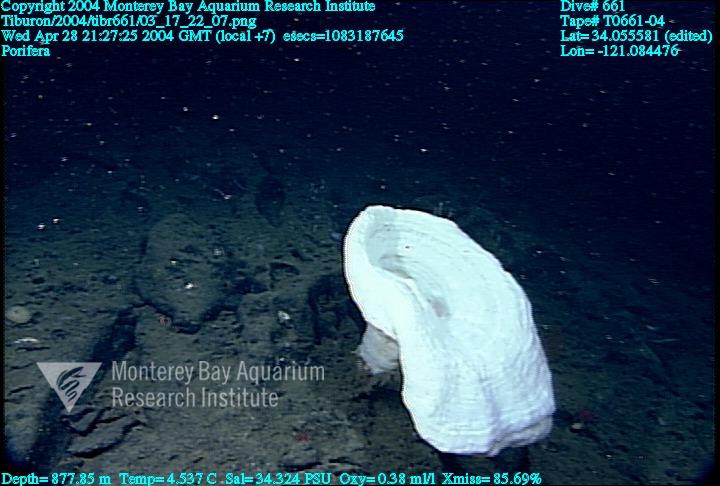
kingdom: Animalia
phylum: Porifera
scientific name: Porifera
